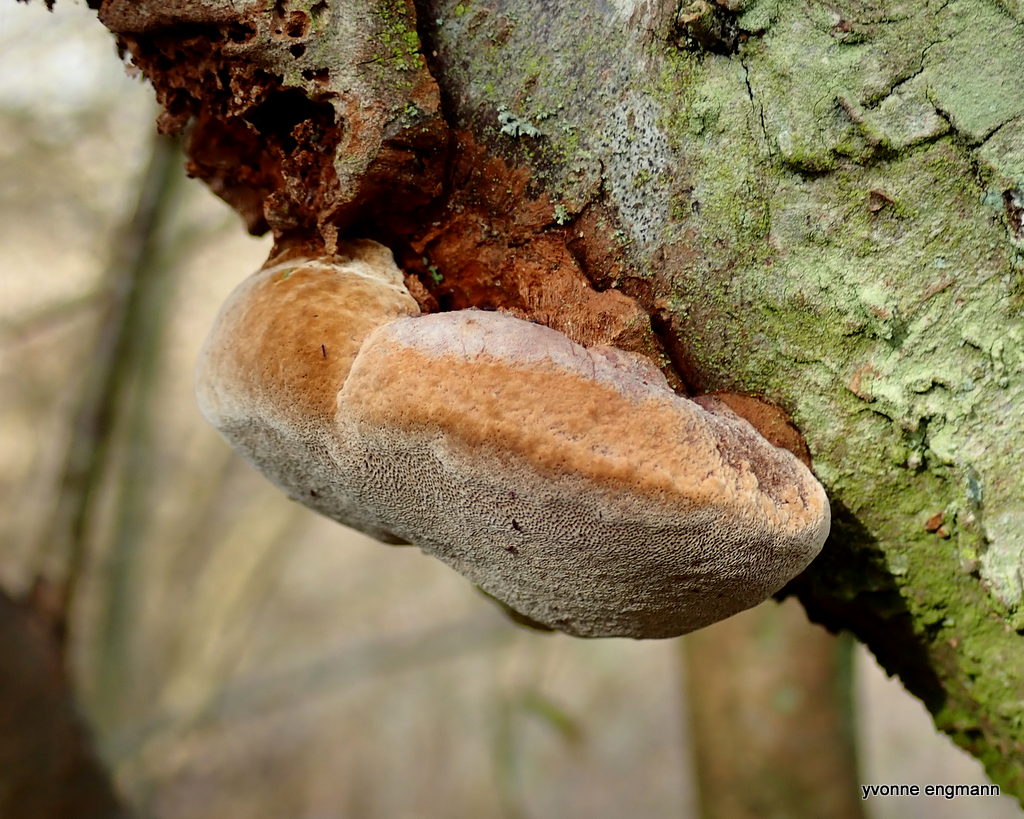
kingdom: Fungi
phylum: Basidiomycota
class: Agaricomycetes
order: Hymenochaetales
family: Hymenochaetaceae
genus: Phellinus
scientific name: Phellinus pomaceus
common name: blomme-ildporesvamp
